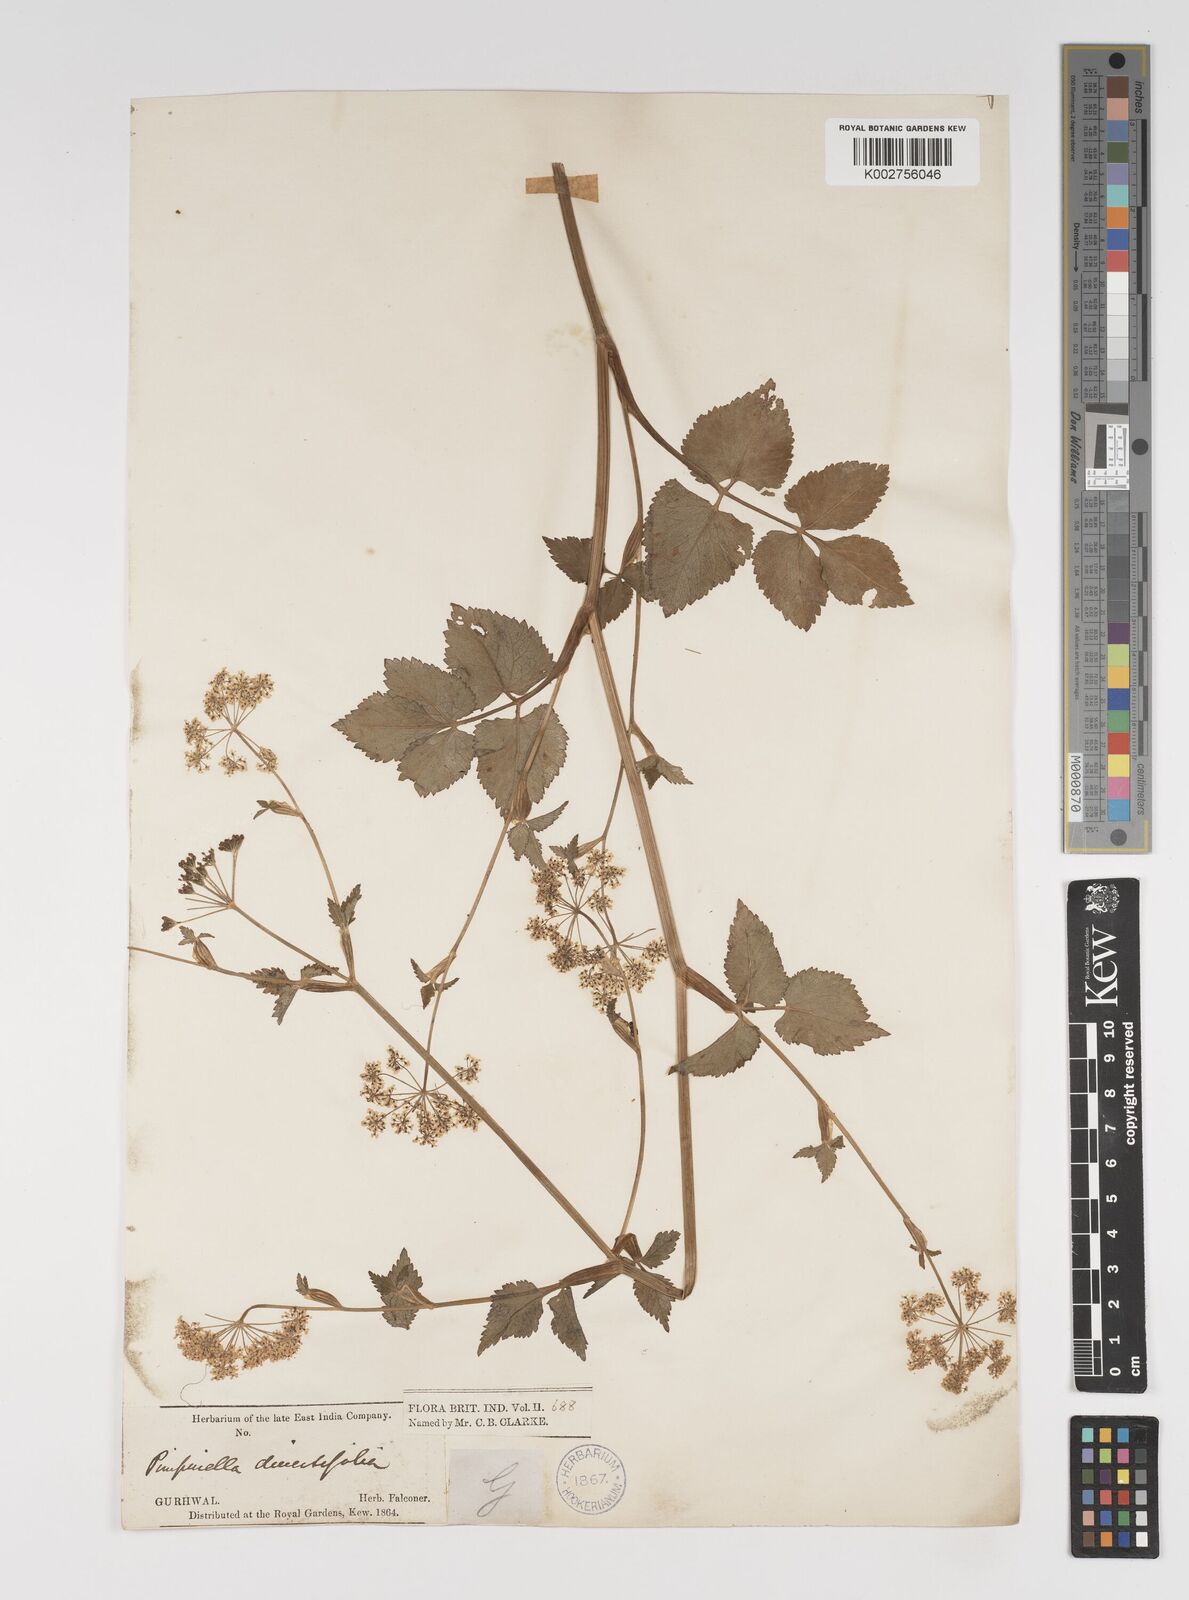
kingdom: Plantae
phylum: Tracheophyta
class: Magnoliopsida
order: Apiales
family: Apiaceae
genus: Pimpinella
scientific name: Pimpinella diversifolia
